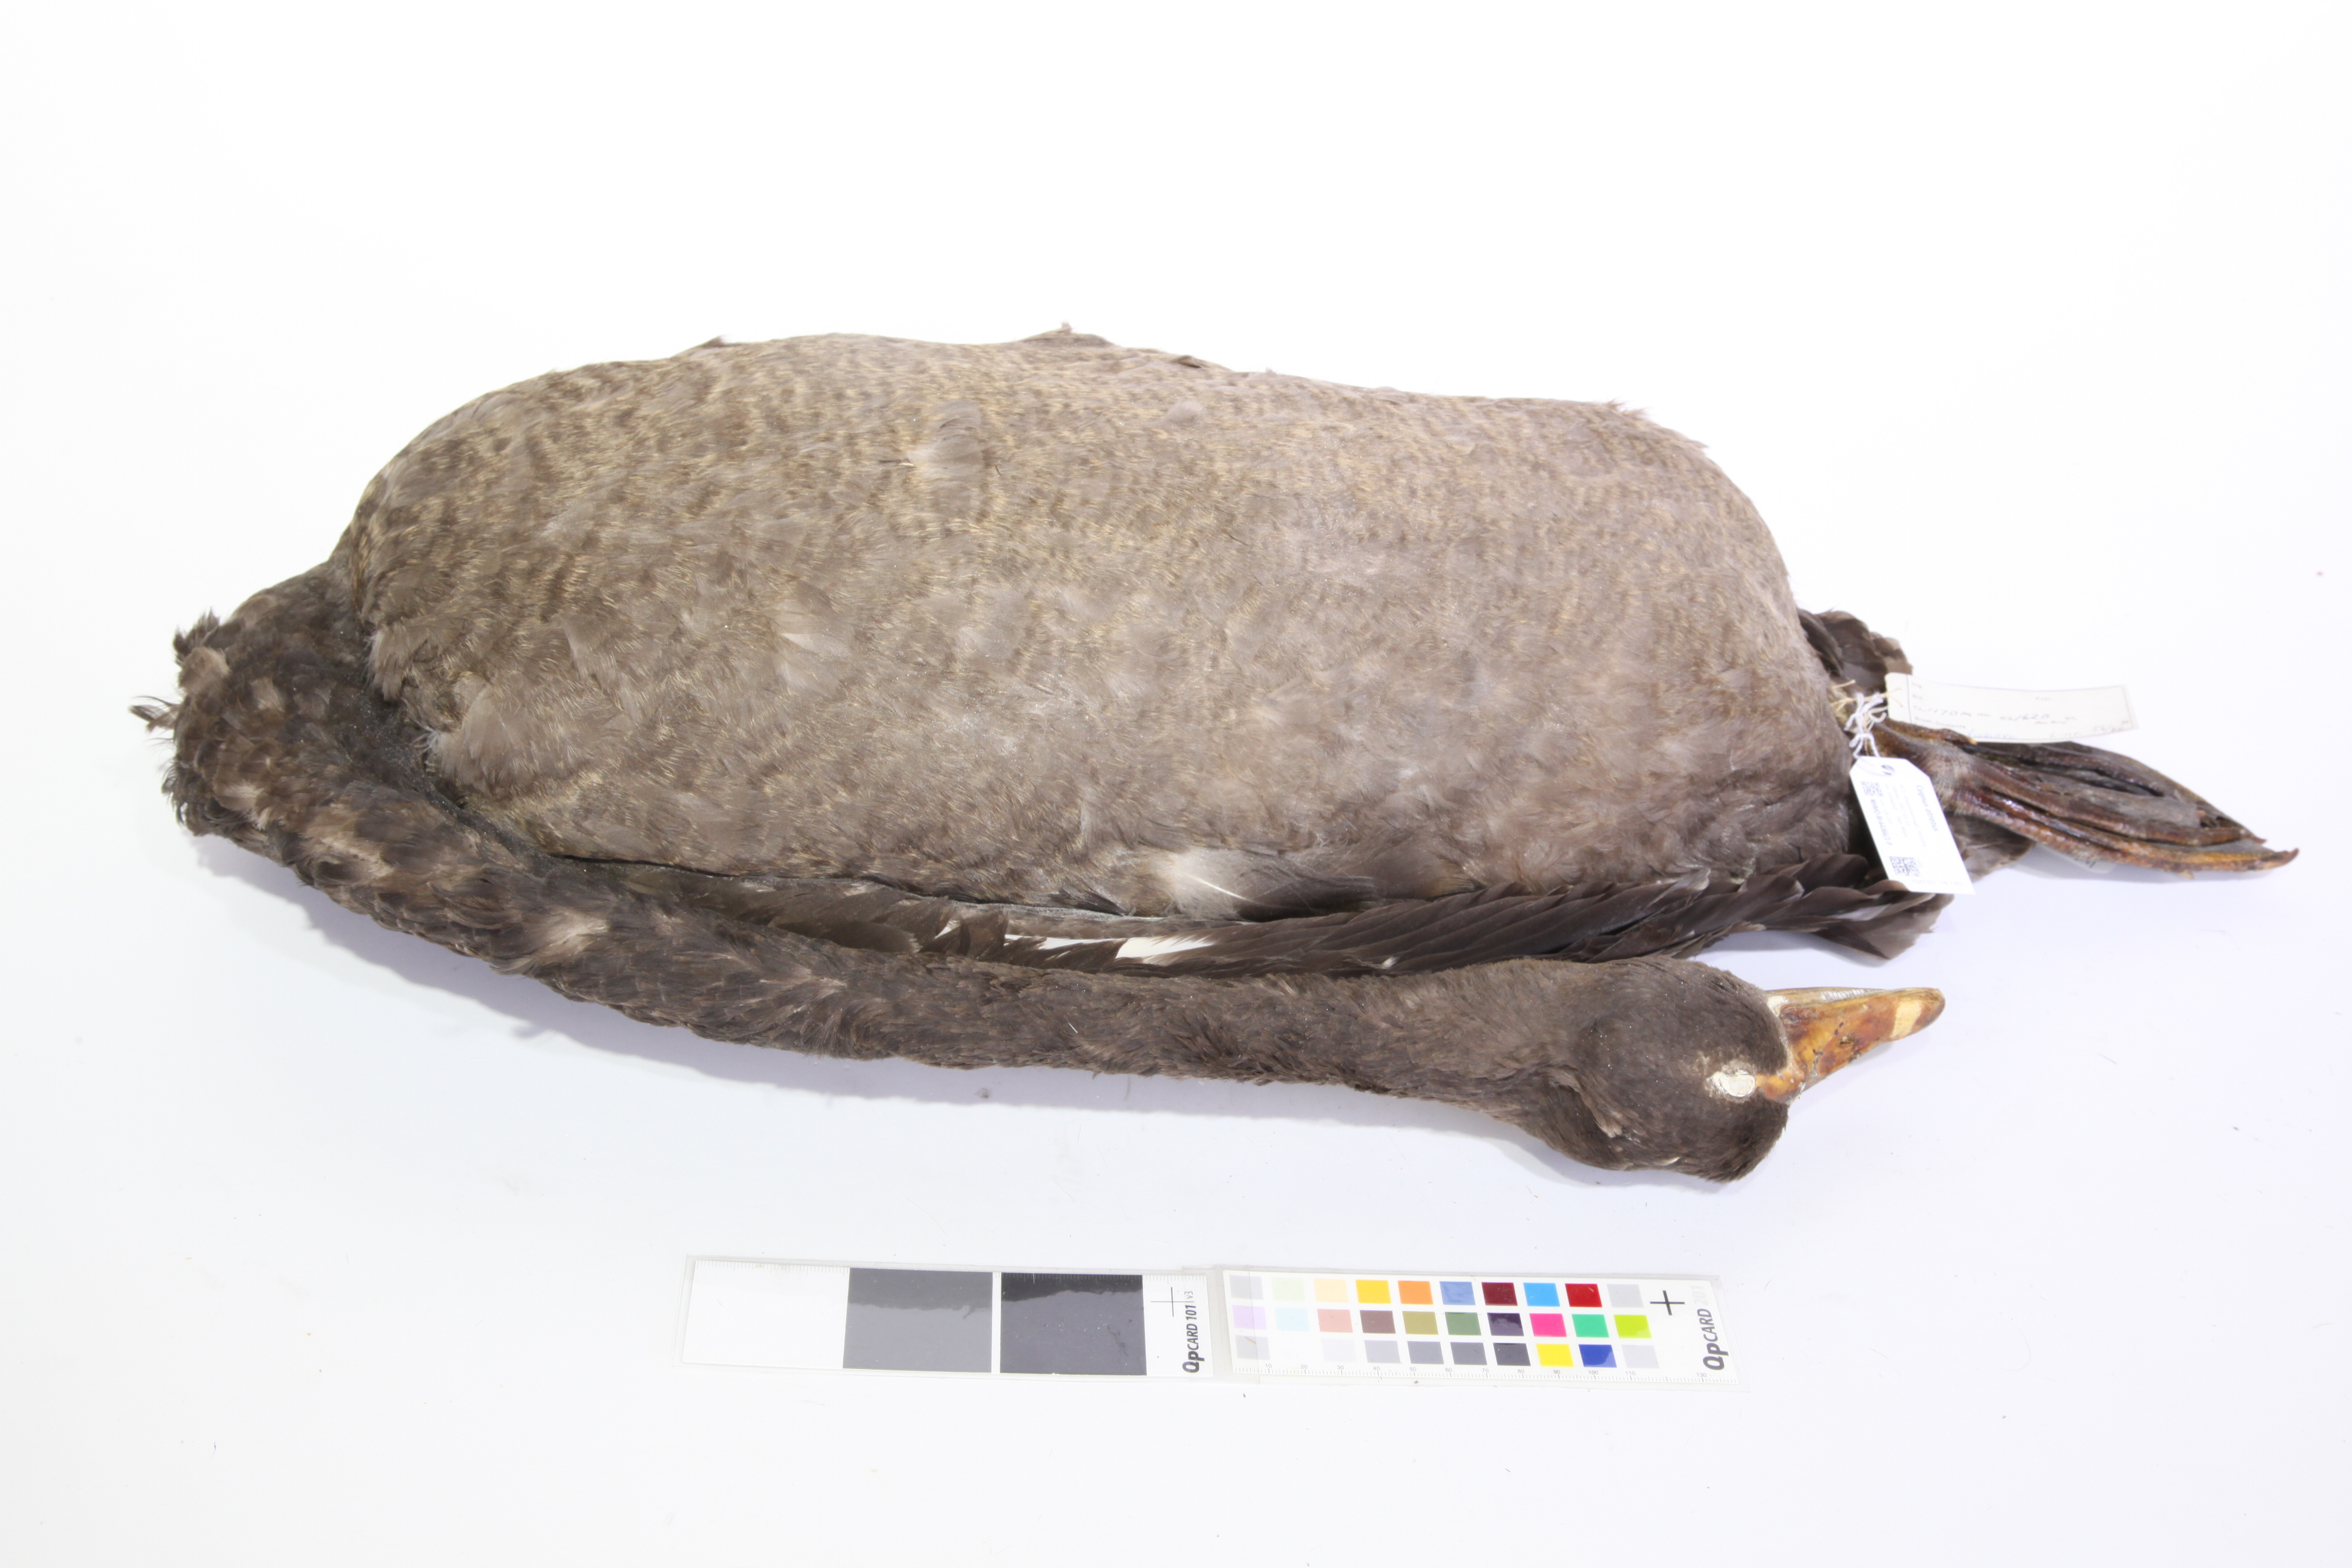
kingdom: Animalia
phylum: Chordata
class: Aves
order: Anseriformes
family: Anatidae
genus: Cygnus
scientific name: Cygnus atratus
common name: Black swan
